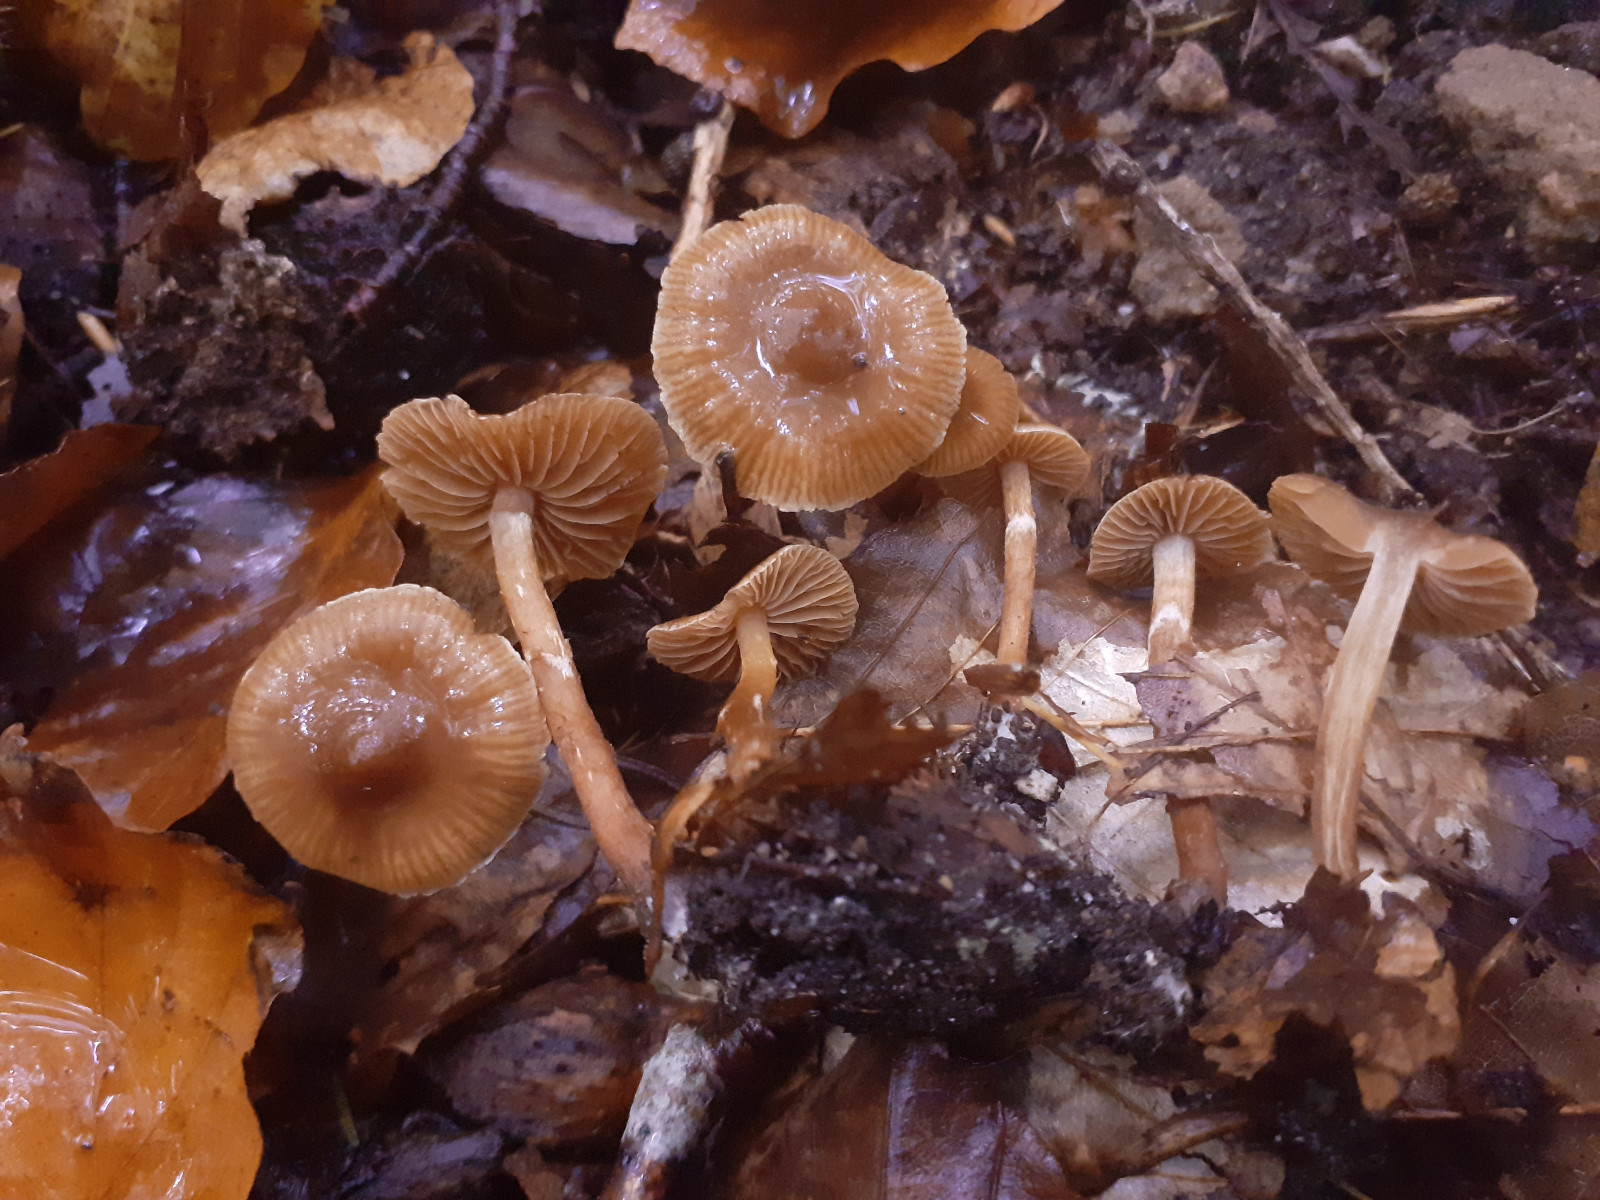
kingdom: Fungi
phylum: Basidiomycota
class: Agaricomycetes
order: Agaricales
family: Cortinariaceae
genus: Cortinarius
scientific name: Cortinarius russulaespermus
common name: finstribet slørhat
